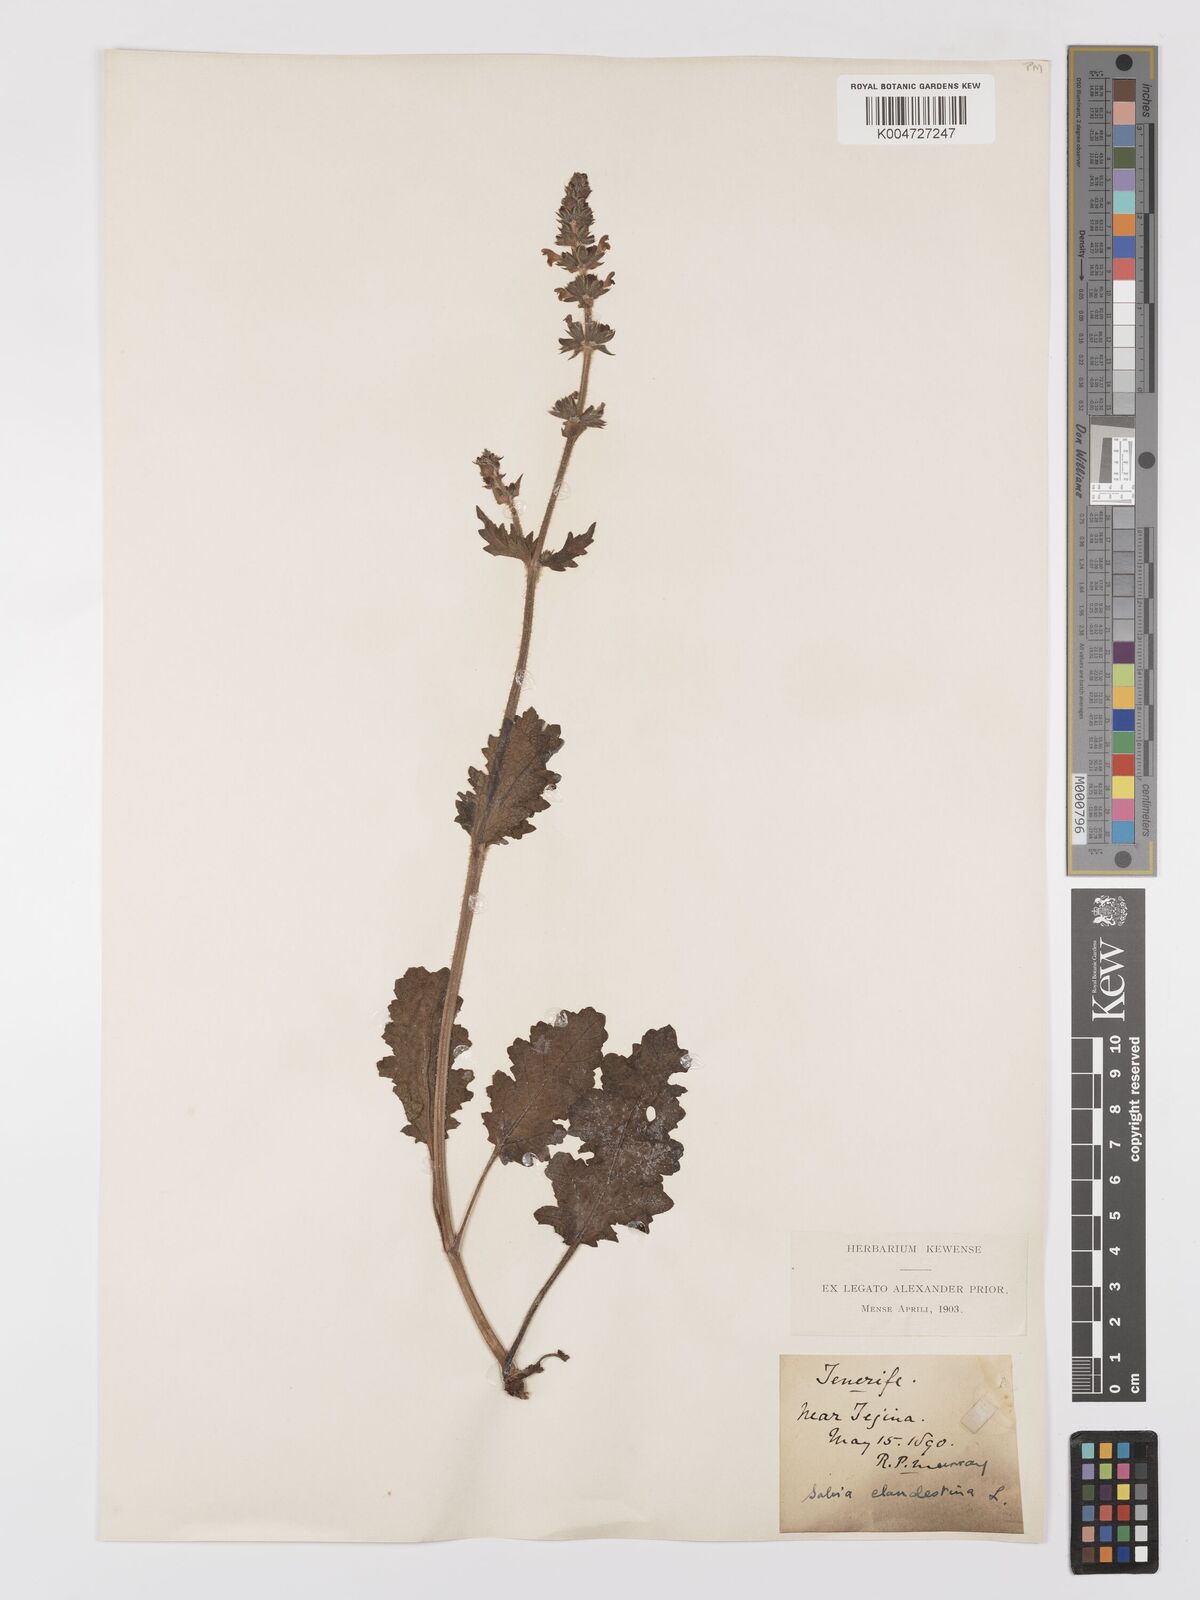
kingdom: Plantae
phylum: Tracheophyta
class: Magnoliopsida
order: Lamiales
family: Lamiaceae
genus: Salvia
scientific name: Salvia verbenaca
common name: Wild clary
